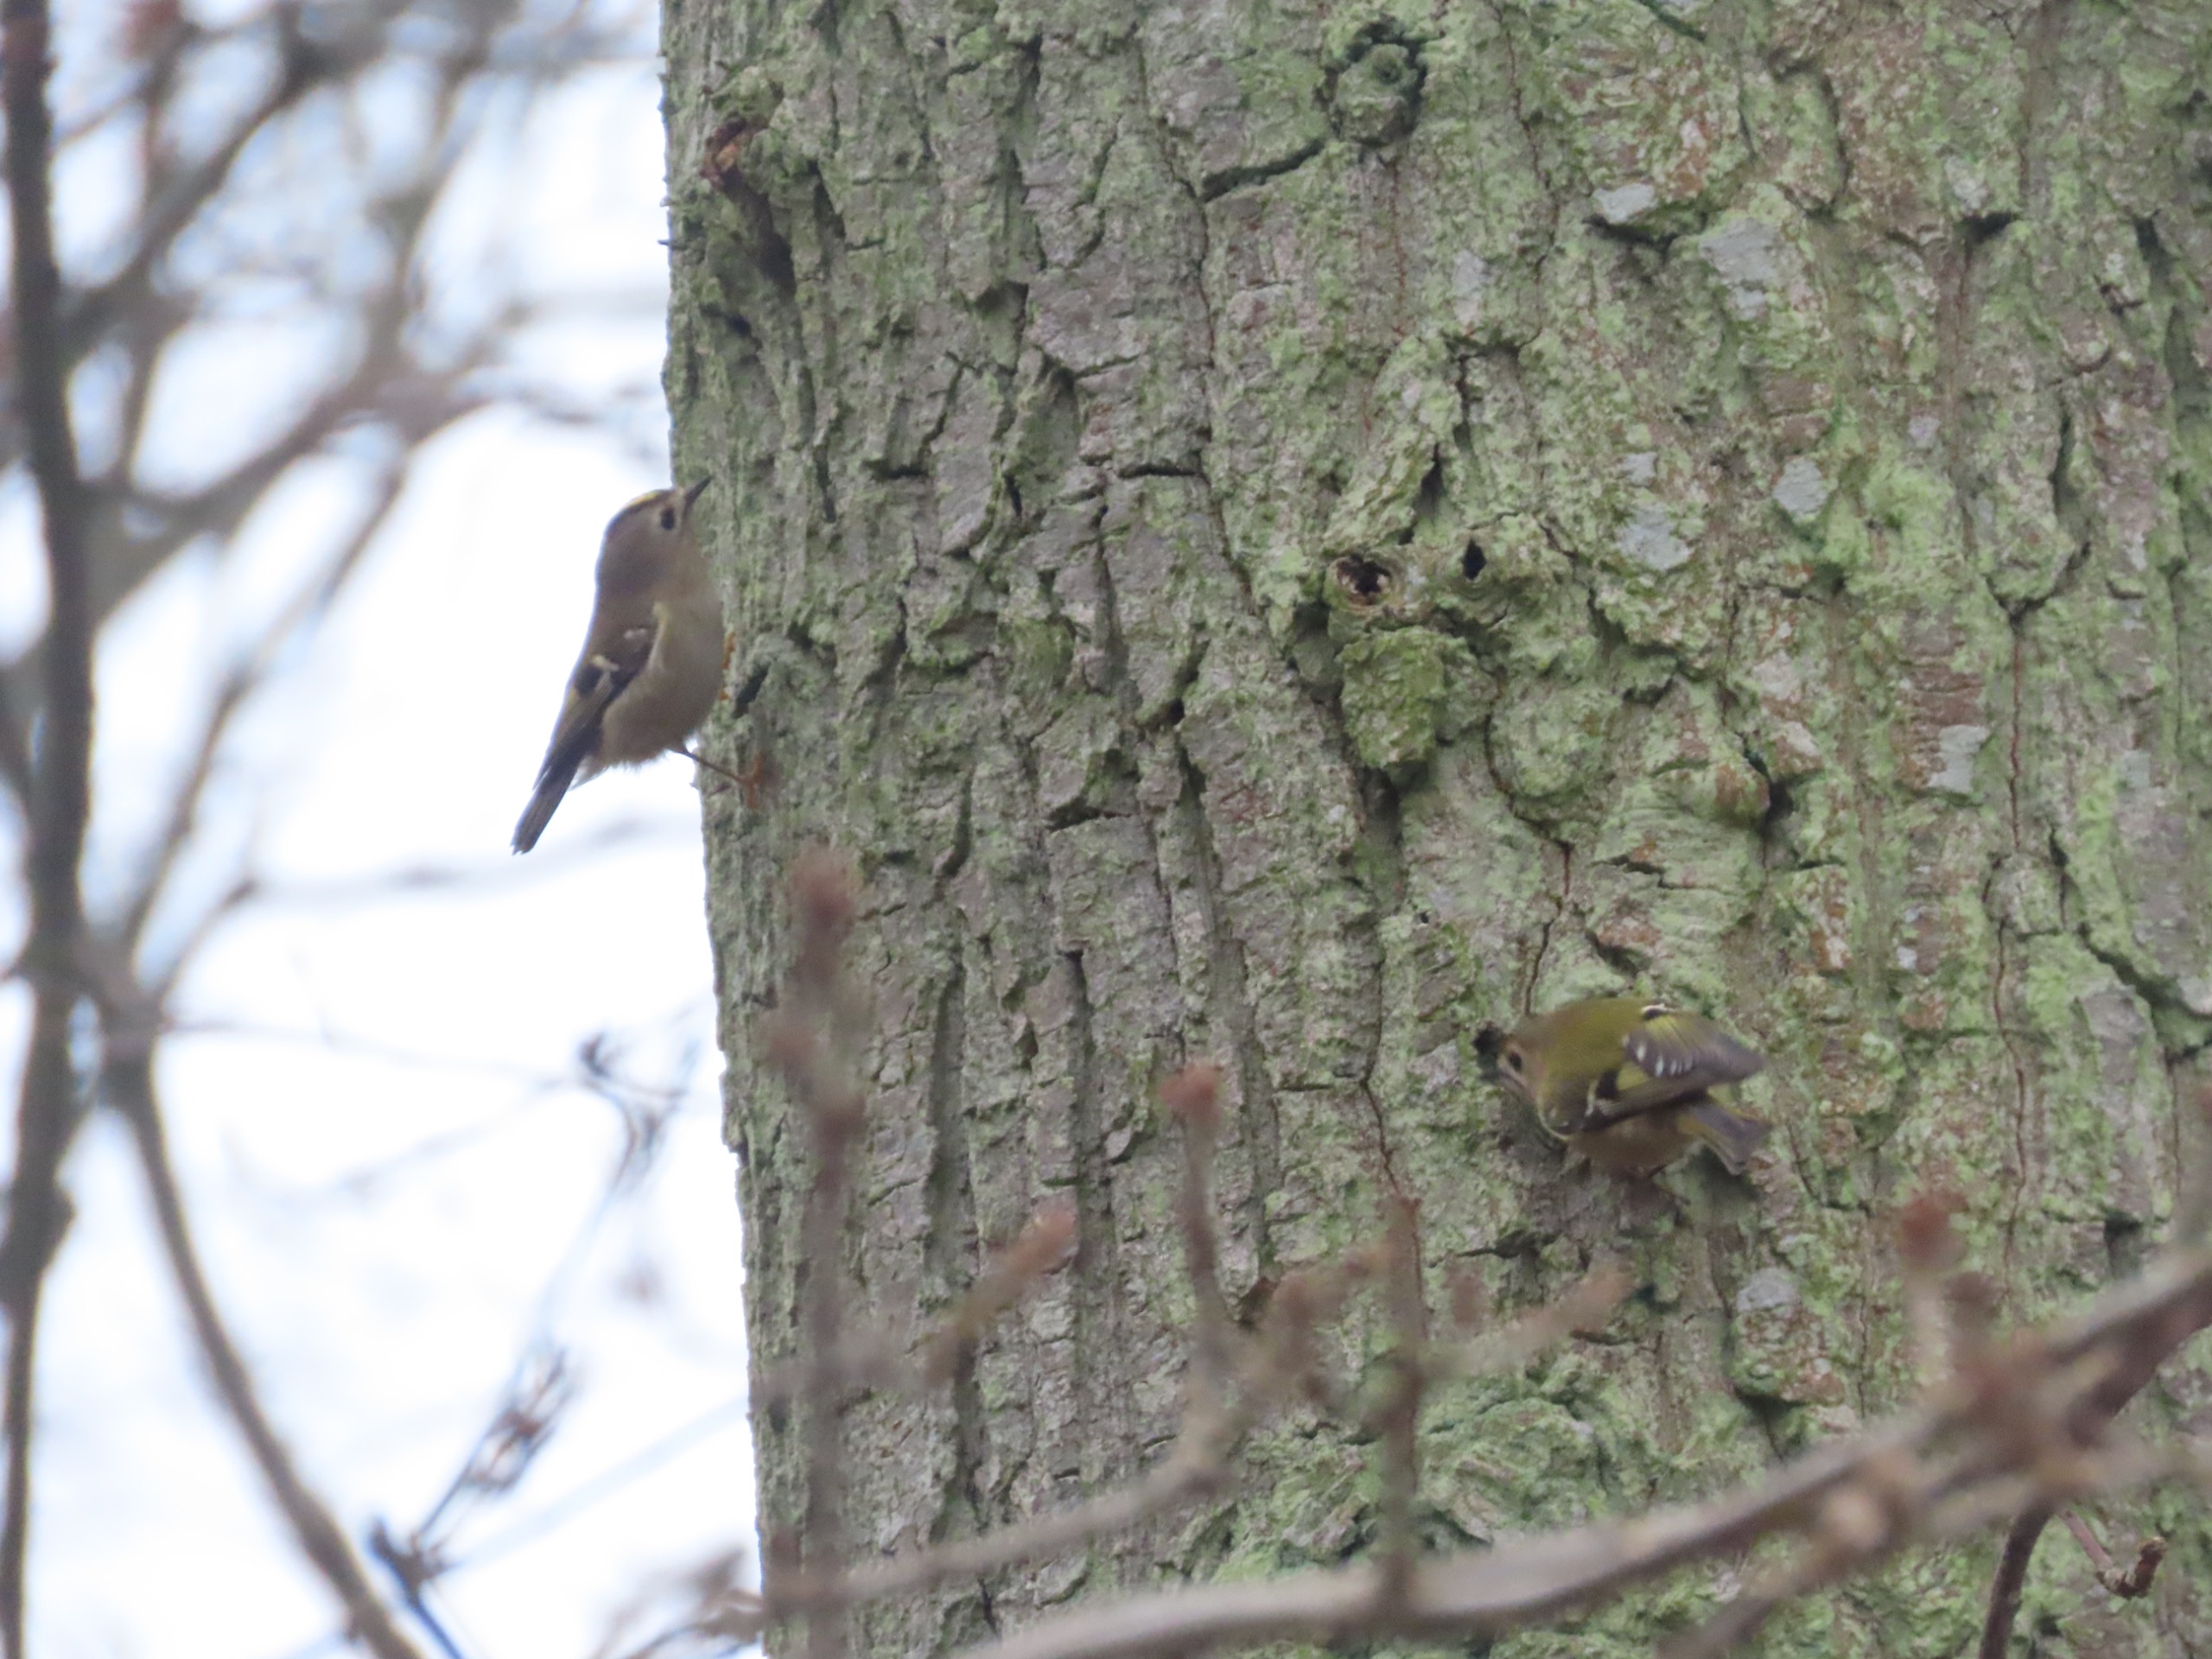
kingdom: Animalia
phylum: Chordata
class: Aves
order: Passeriformes
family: Regulidae
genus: Regulus
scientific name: Regulus regulus
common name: Fuglekonge
